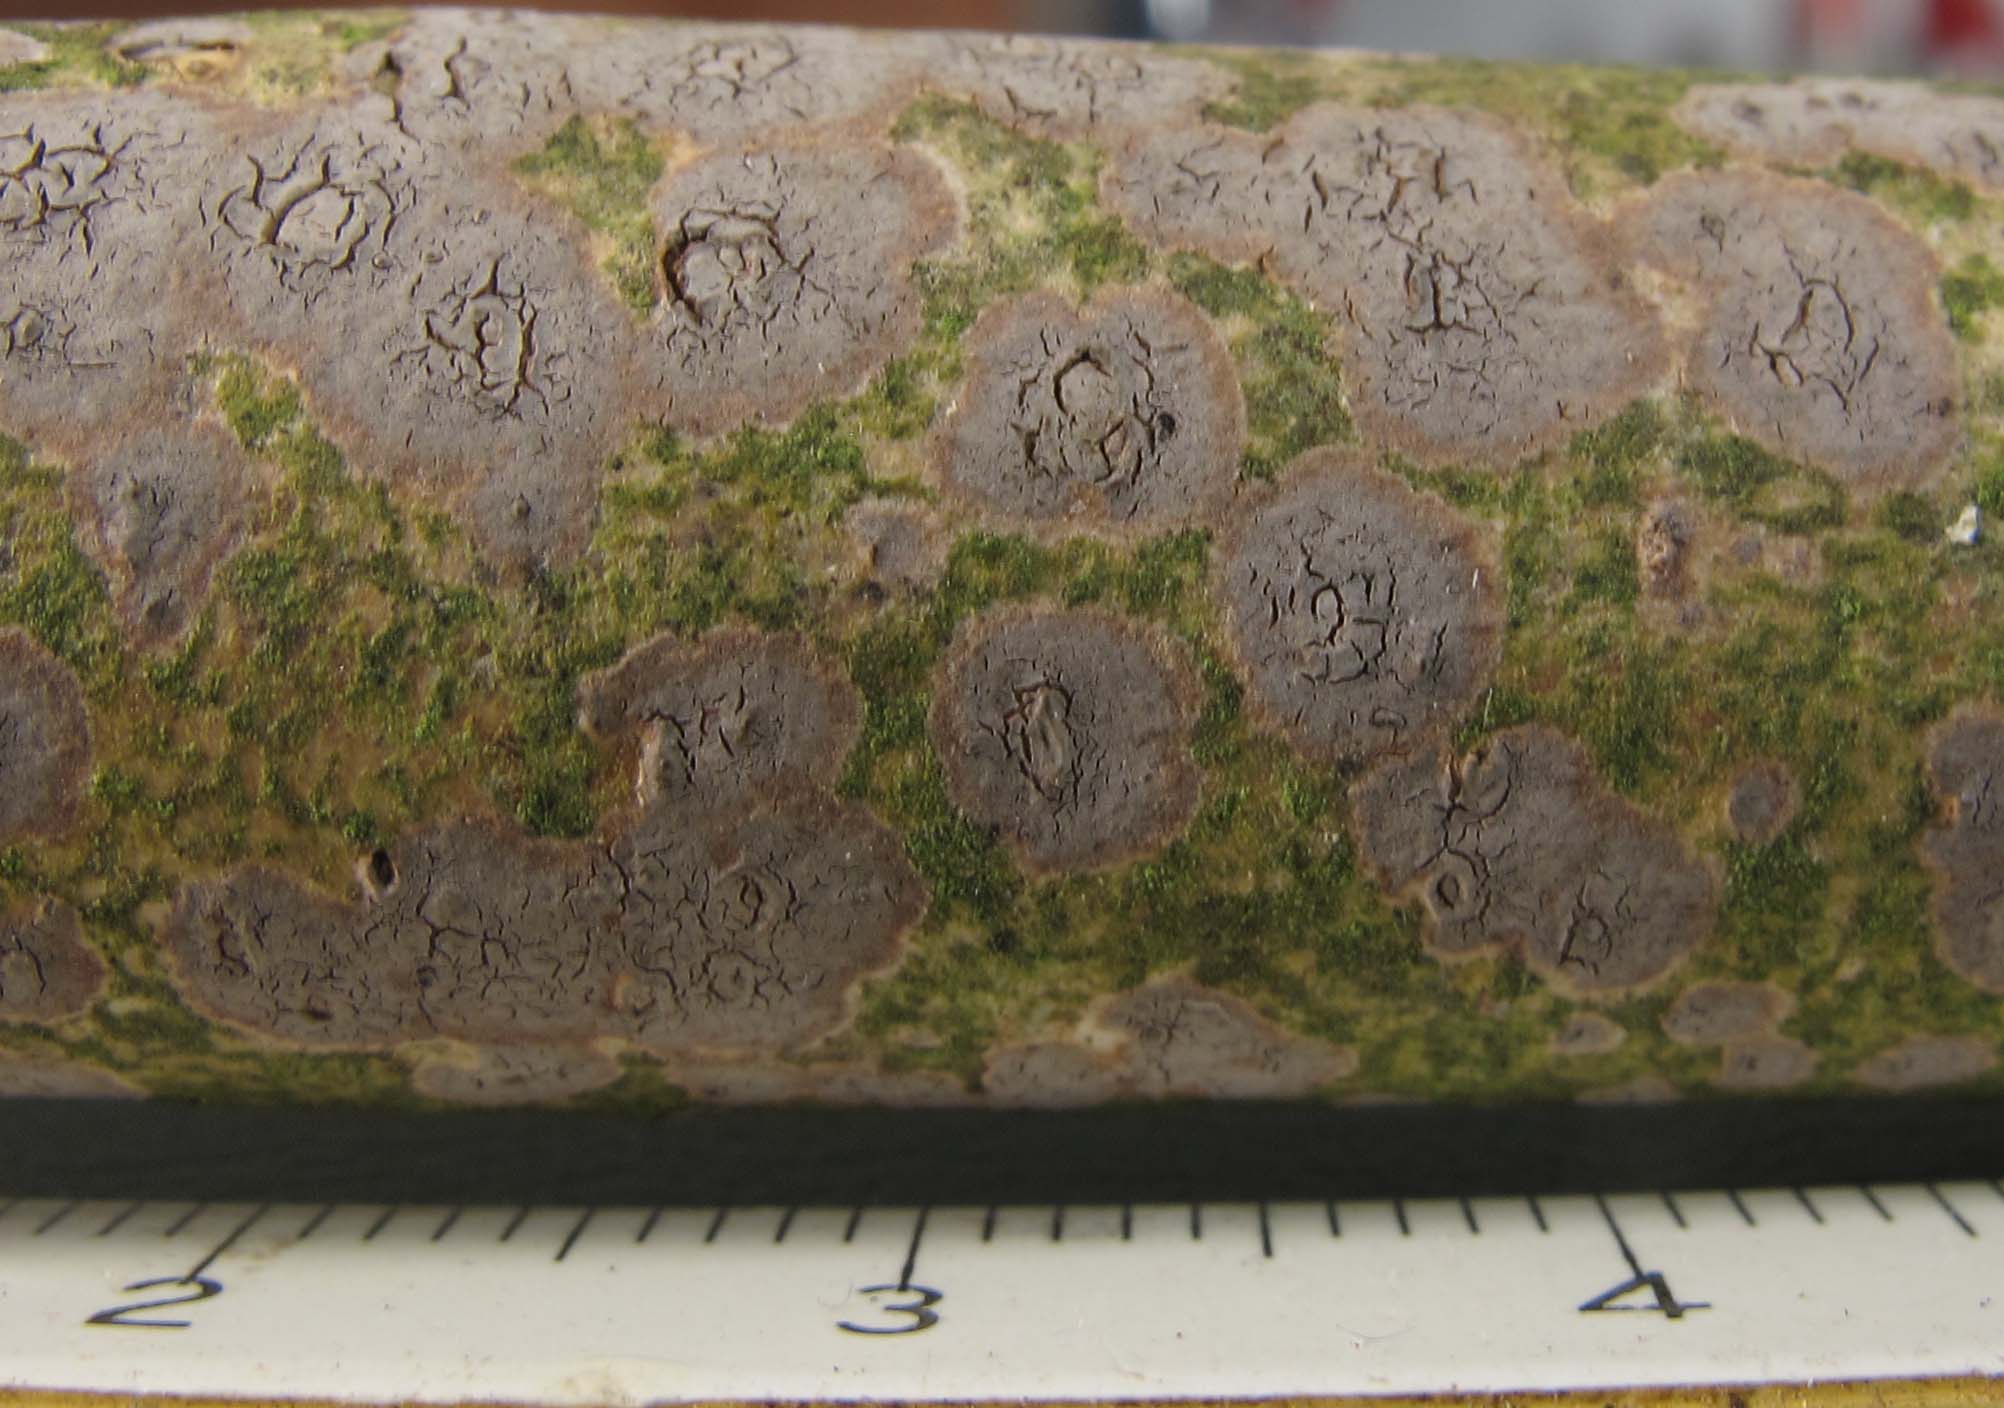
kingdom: Fungi
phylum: Basidiomycota
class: Agaricomycetes
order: Russulales
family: Peniophoraceae
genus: Peniophora
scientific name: Peniophora lycii
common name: grynet voksskind
